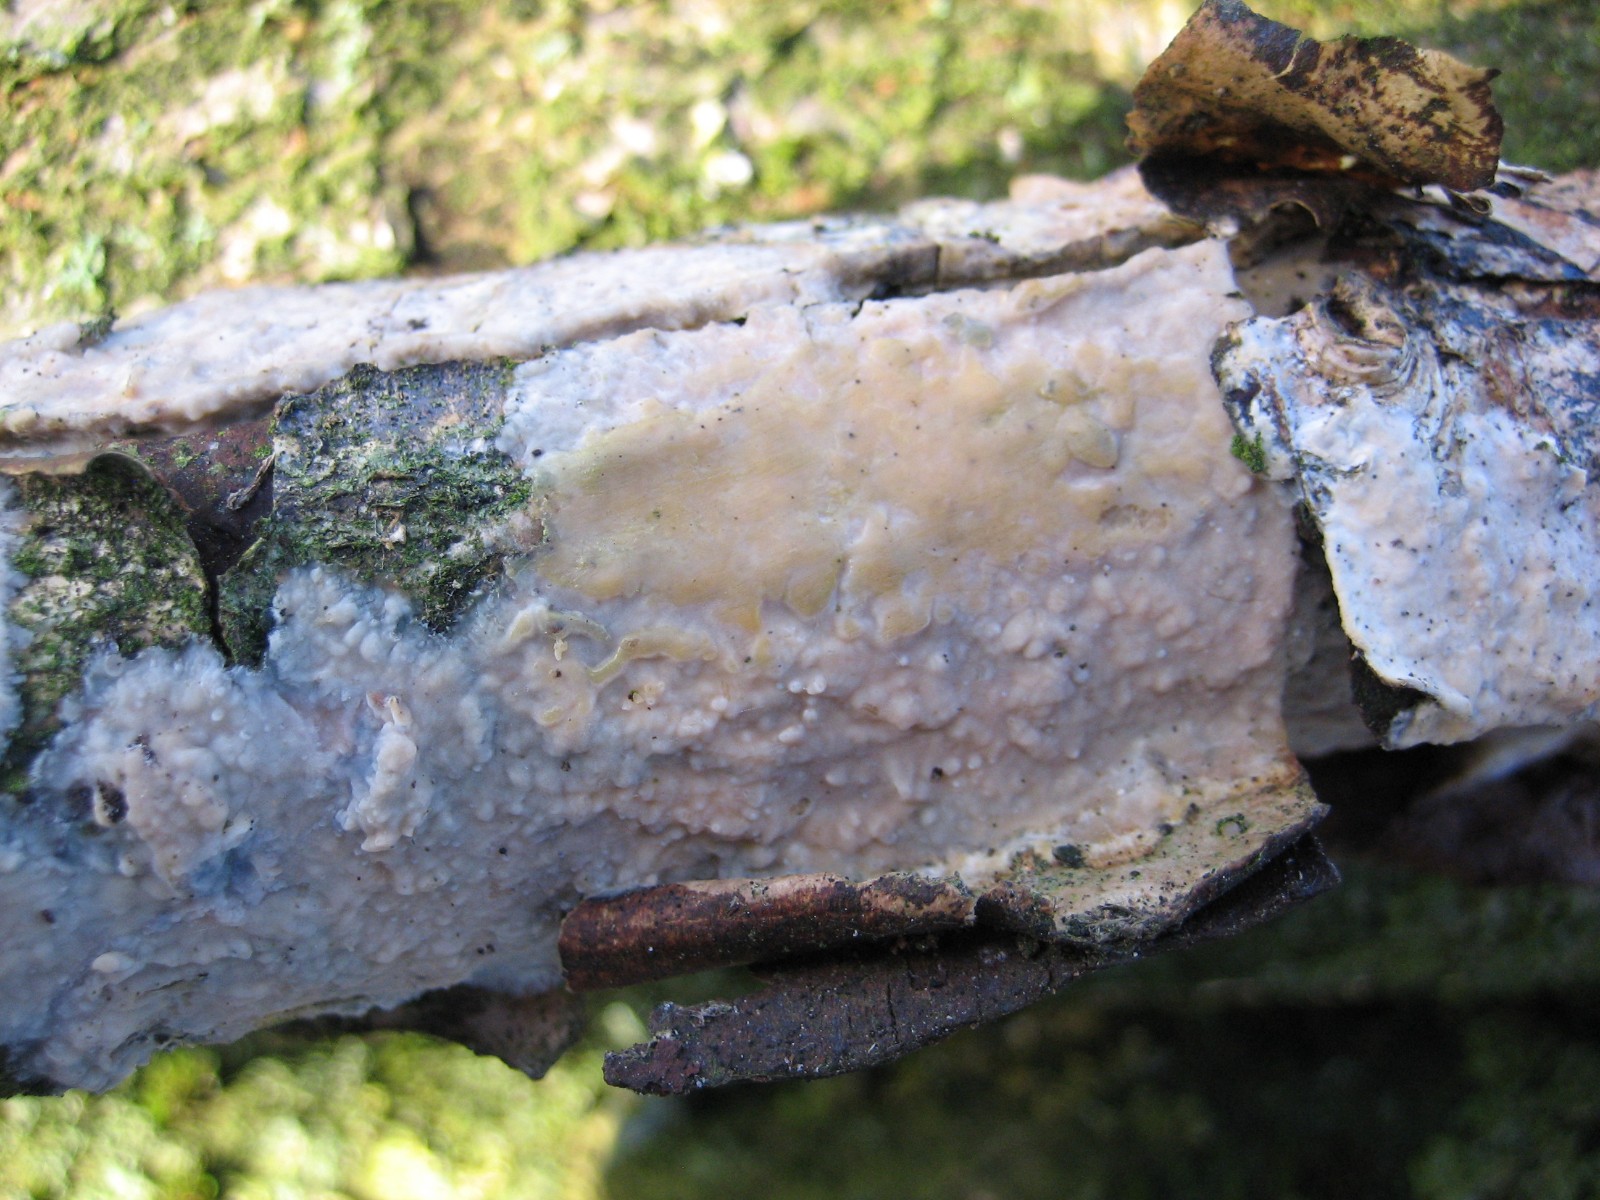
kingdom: Fungi
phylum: Basidiomycota
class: Agaricomycetes
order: Agaricales
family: Radulomycetaceae
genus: Radulomyces
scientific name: Radulomyces confluens
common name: glat naftalinskind
